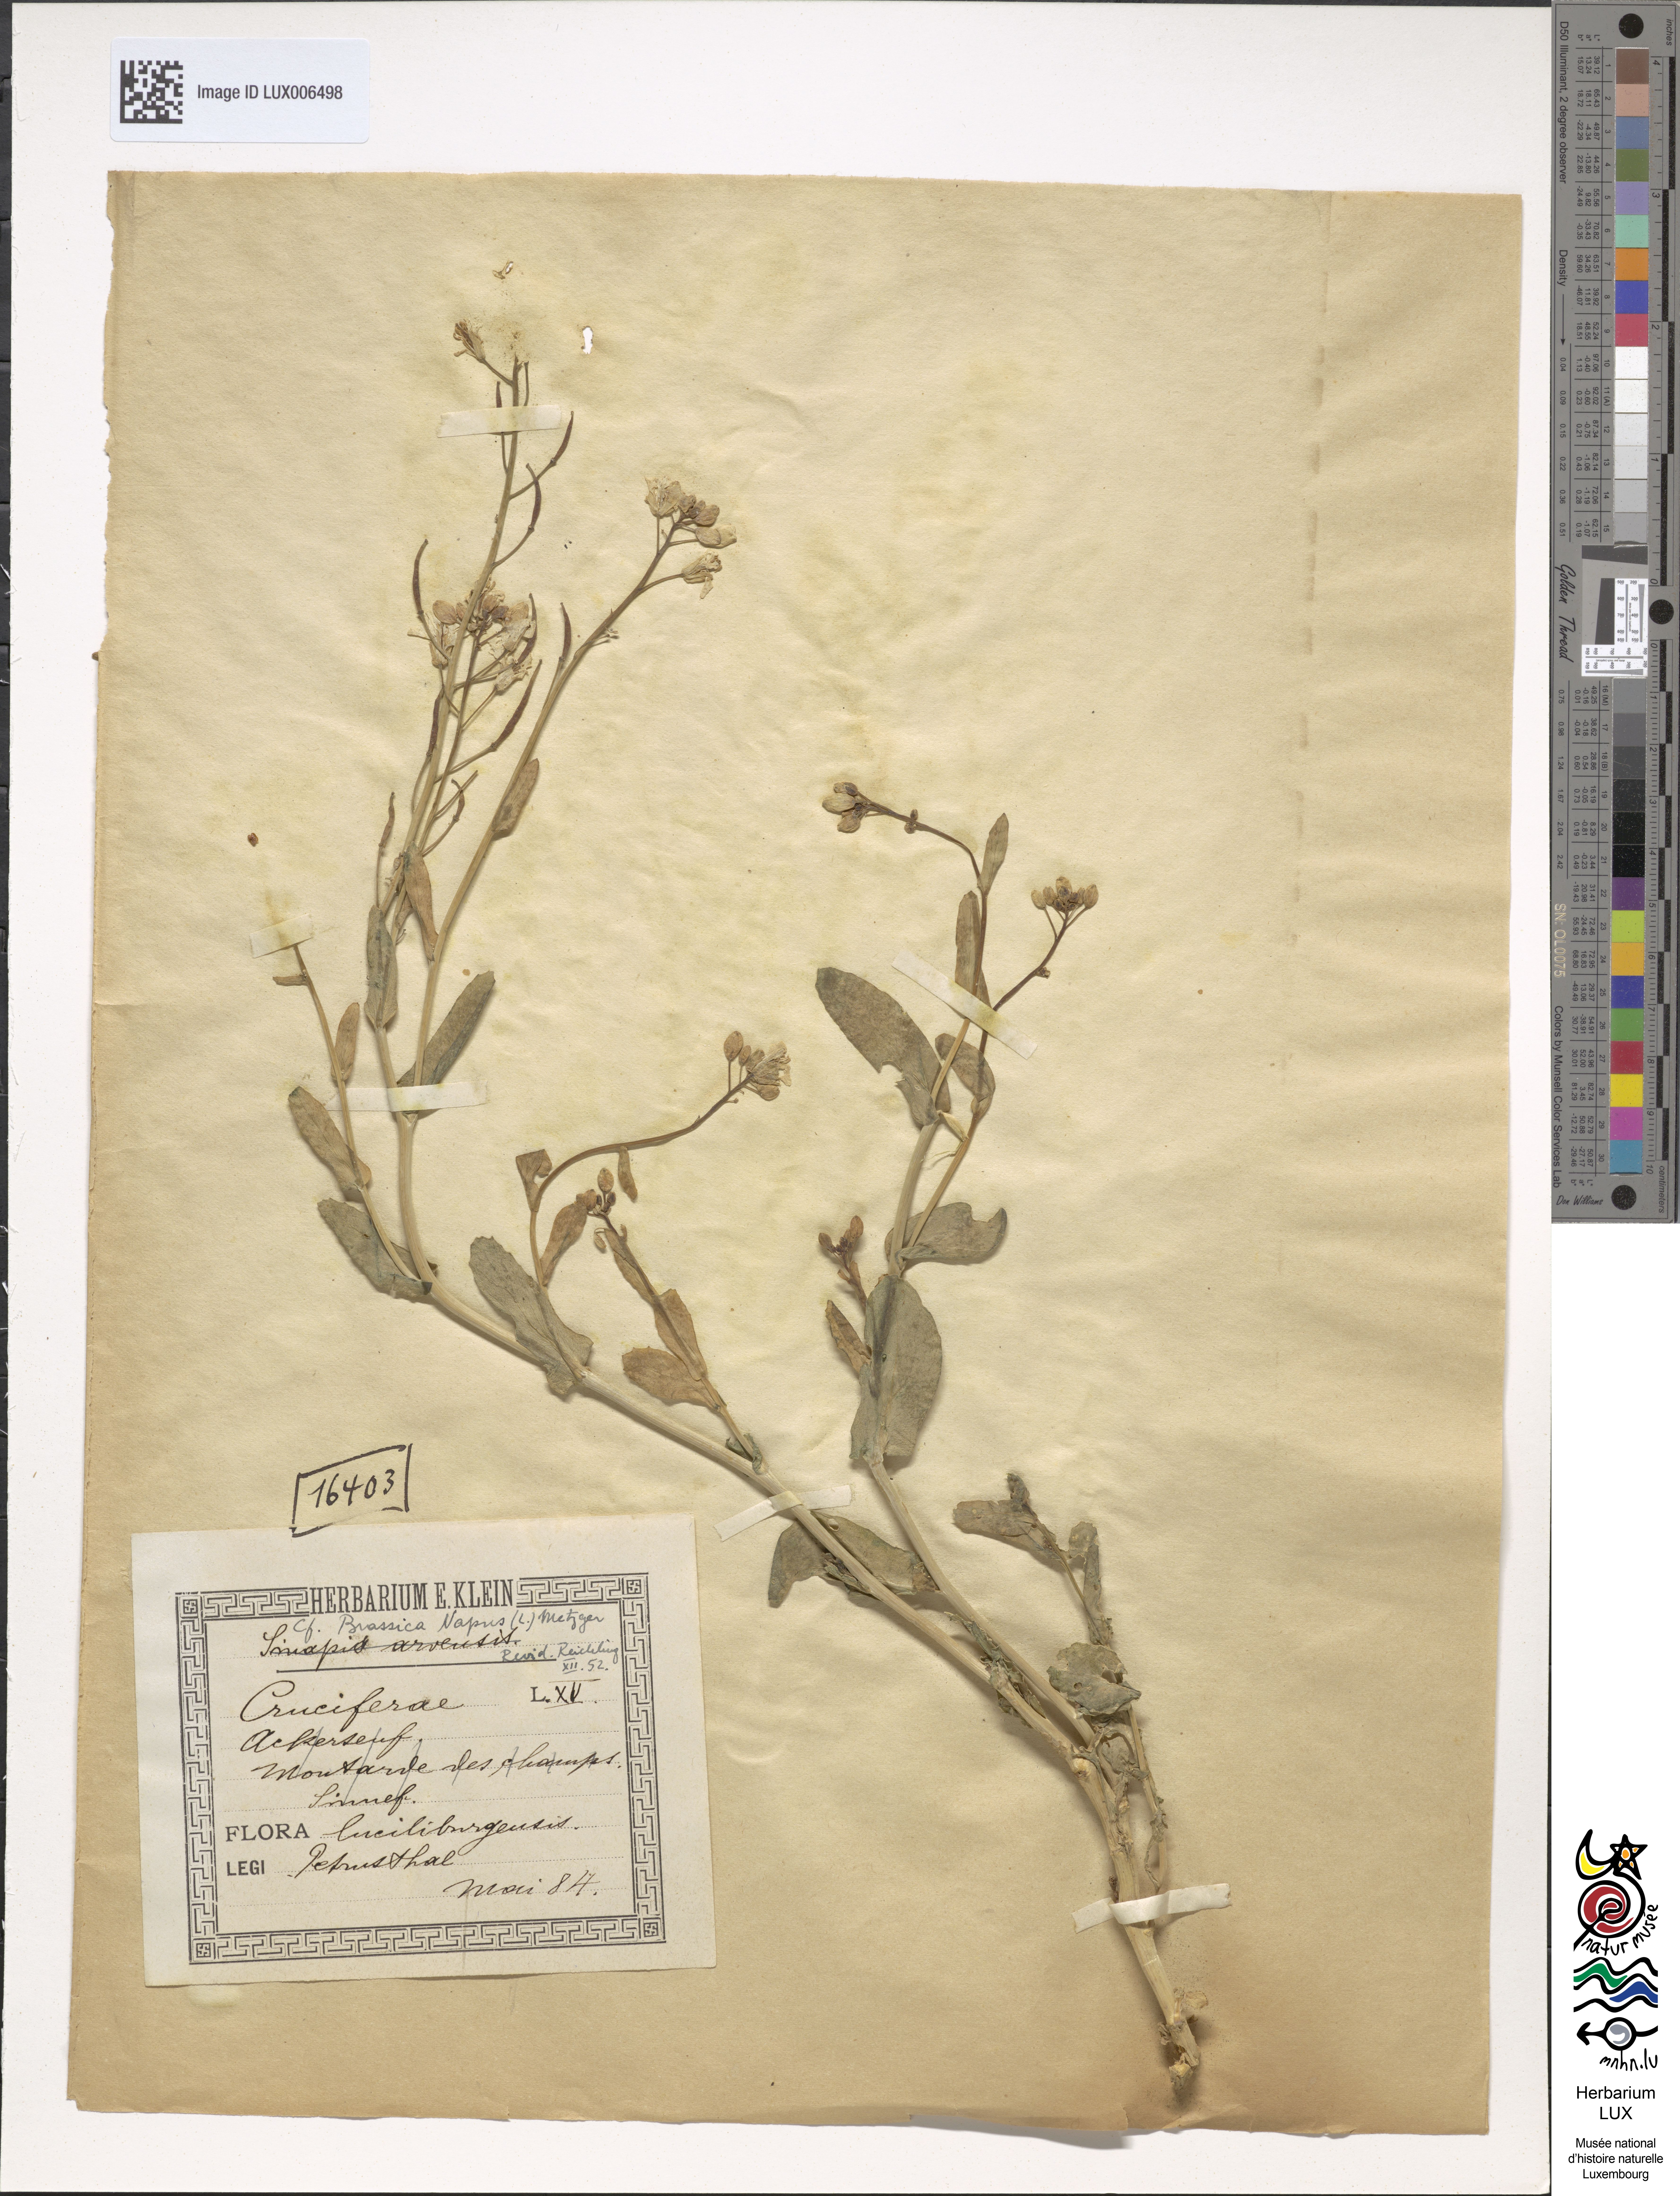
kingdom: Plantae
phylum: Tracheophyta
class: Magnoliopsida
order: Brassicales
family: Brassicaceae
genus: Brassica
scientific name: Brassica napus
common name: Rape
